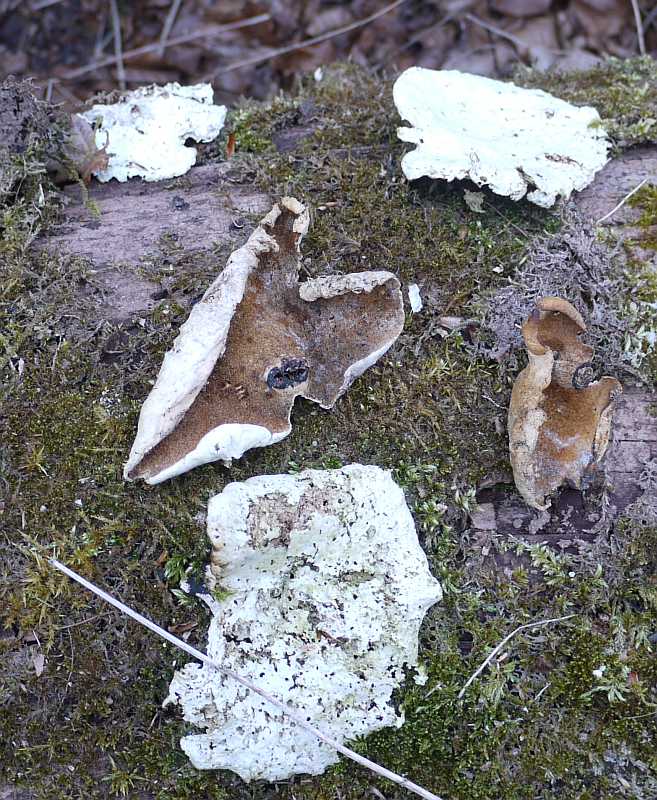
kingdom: Fungi
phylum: Basidiomycota
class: Agaricomycetes
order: Polyporales
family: Polyporaceae
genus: Cerioporus
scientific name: Cerioporus varius
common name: foranderlig stilkporesvamp
